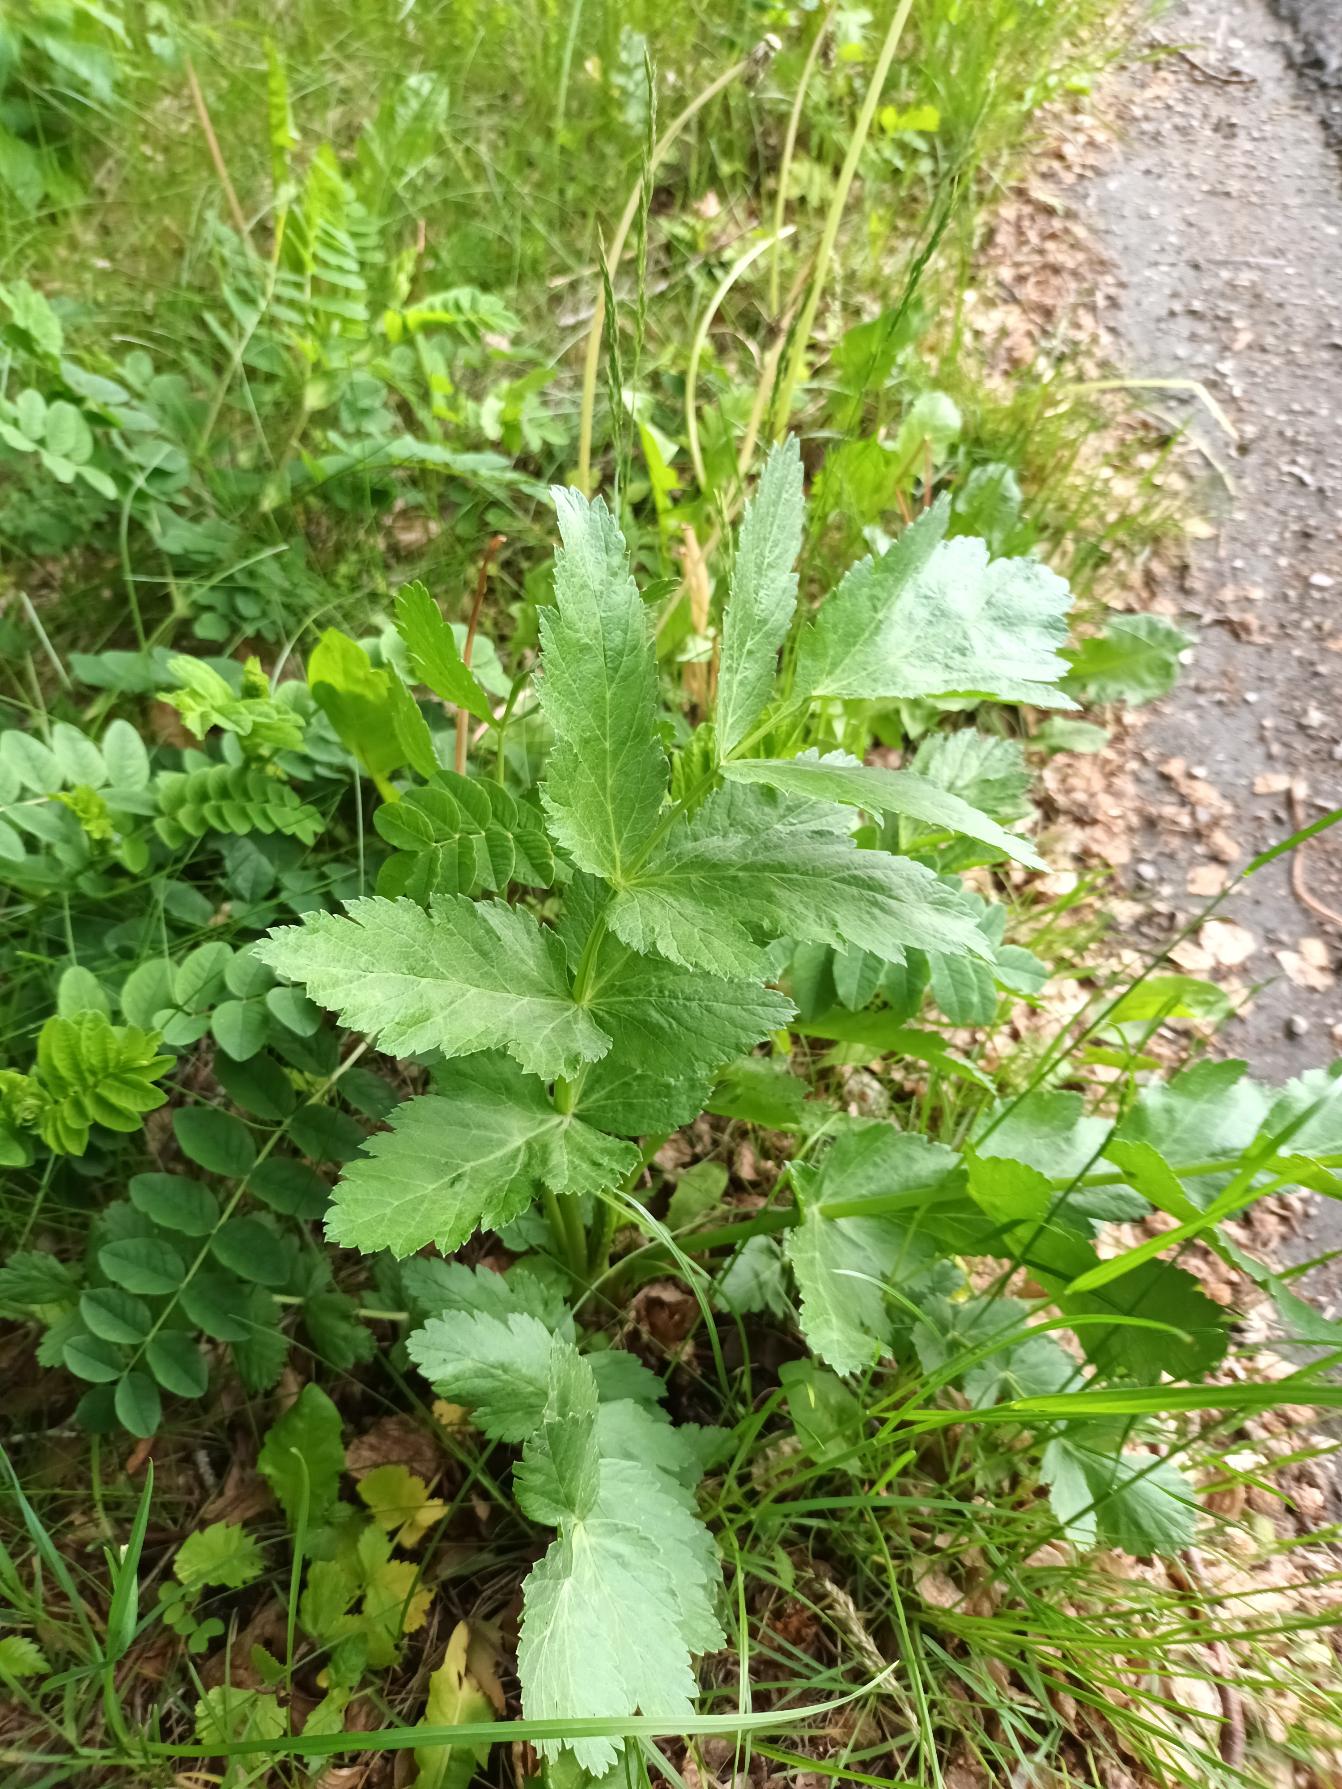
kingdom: Plantae
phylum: Tracheophyta
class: Magnoliopsida
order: Apiales
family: Apiaceae
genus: Pastinaca
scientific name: Pastinaca sativa
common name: Pastinak
